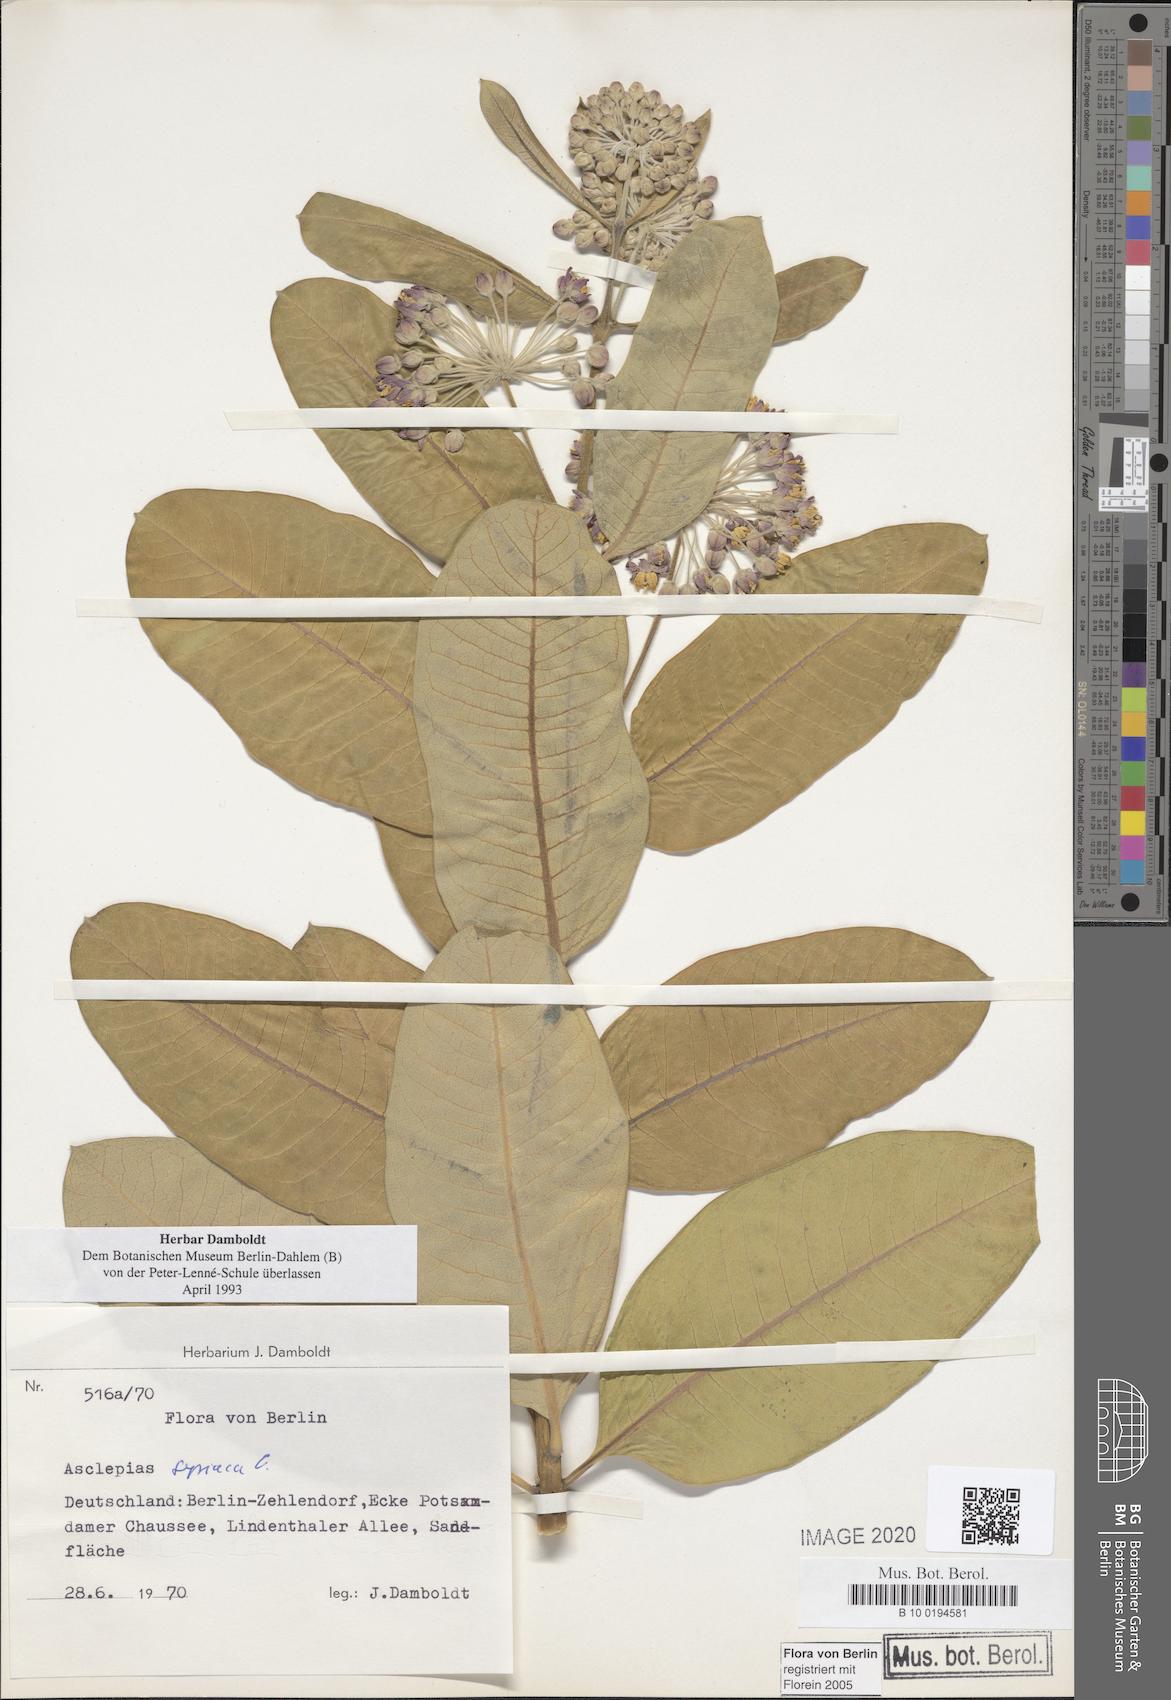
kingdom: Plantae
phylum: Tracheophyta
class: Magnoliopsida
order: Gentianales
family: Apocynaceae
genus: Asclepias
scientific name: Asclepias syriaca
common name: Common milkweed
